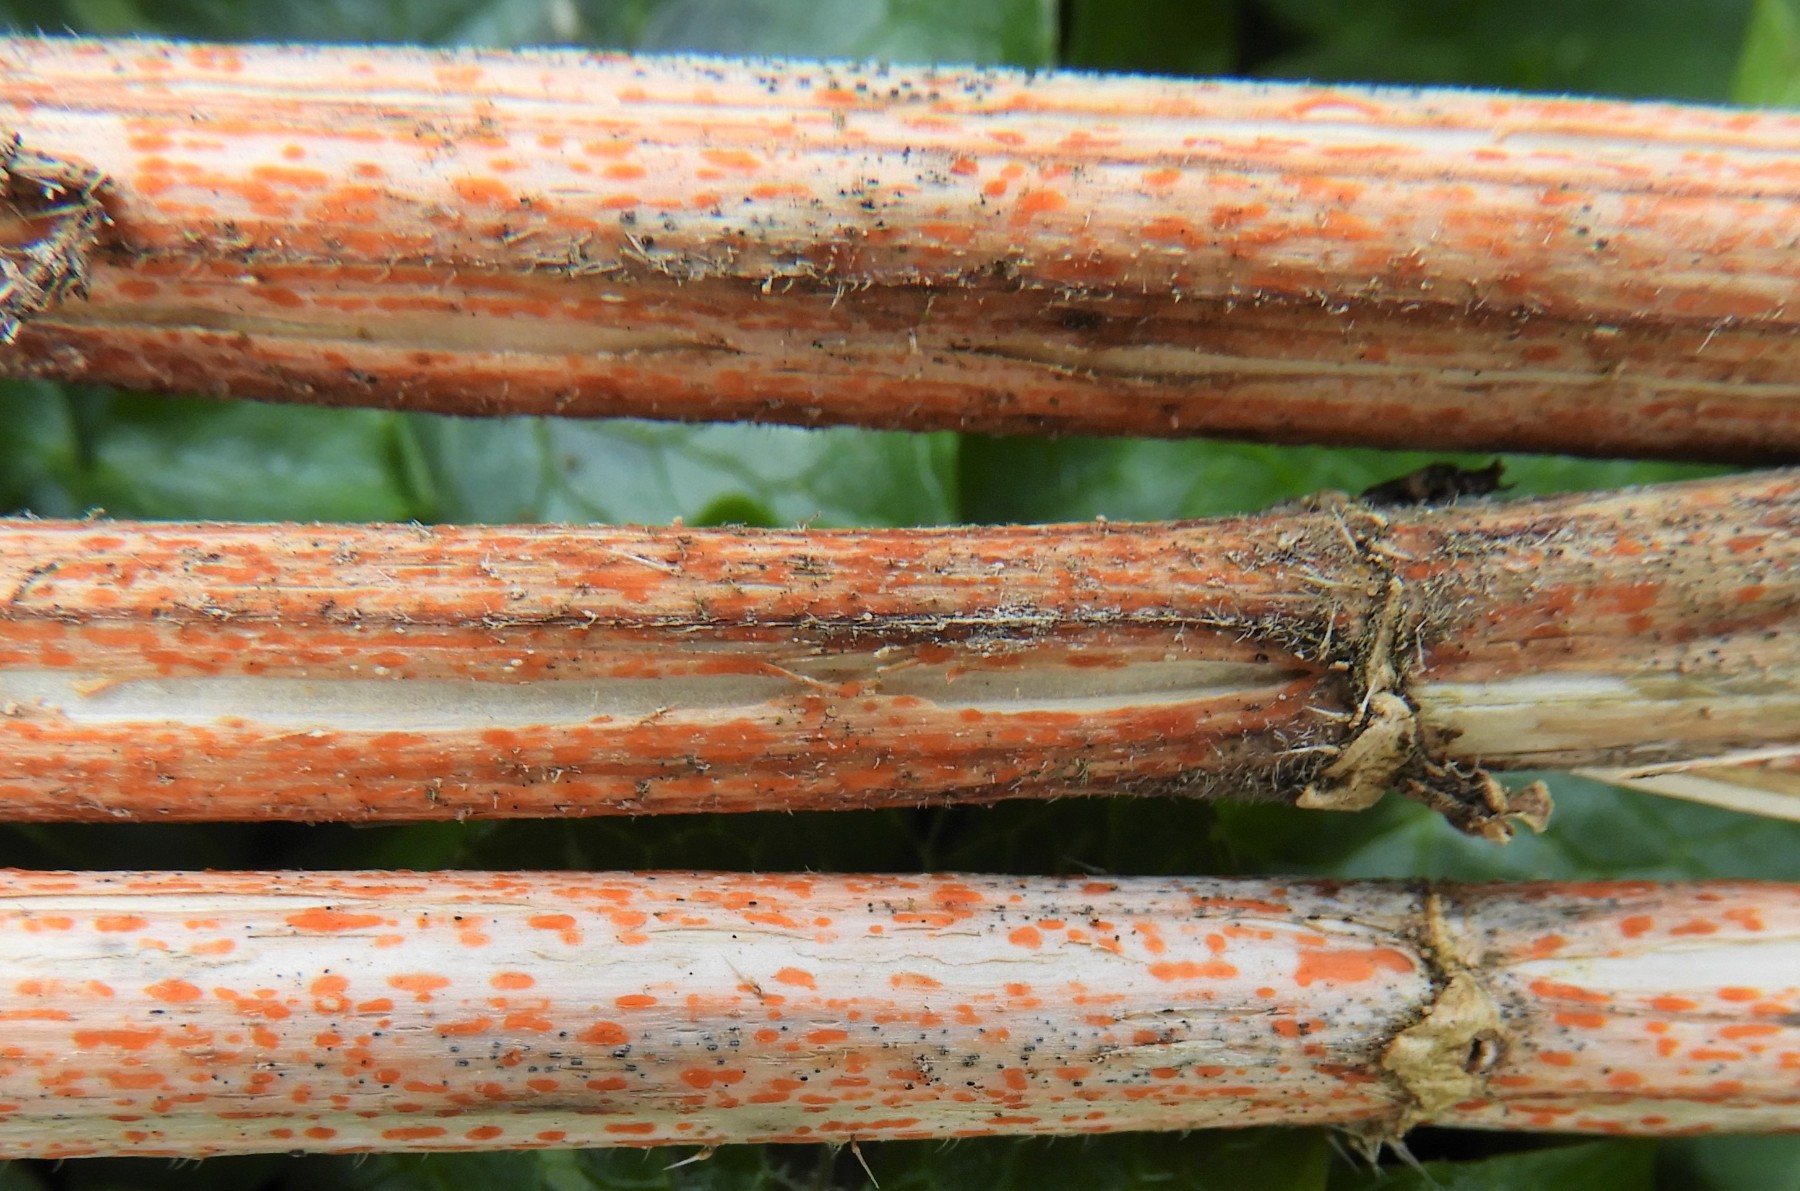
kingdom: Fungi
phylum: Ascomycota
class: Leotiomycetes
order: Helotiales
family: Calloriaceae
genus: Calloria
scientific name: Calloria urticae
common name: nælde-orangeskive
